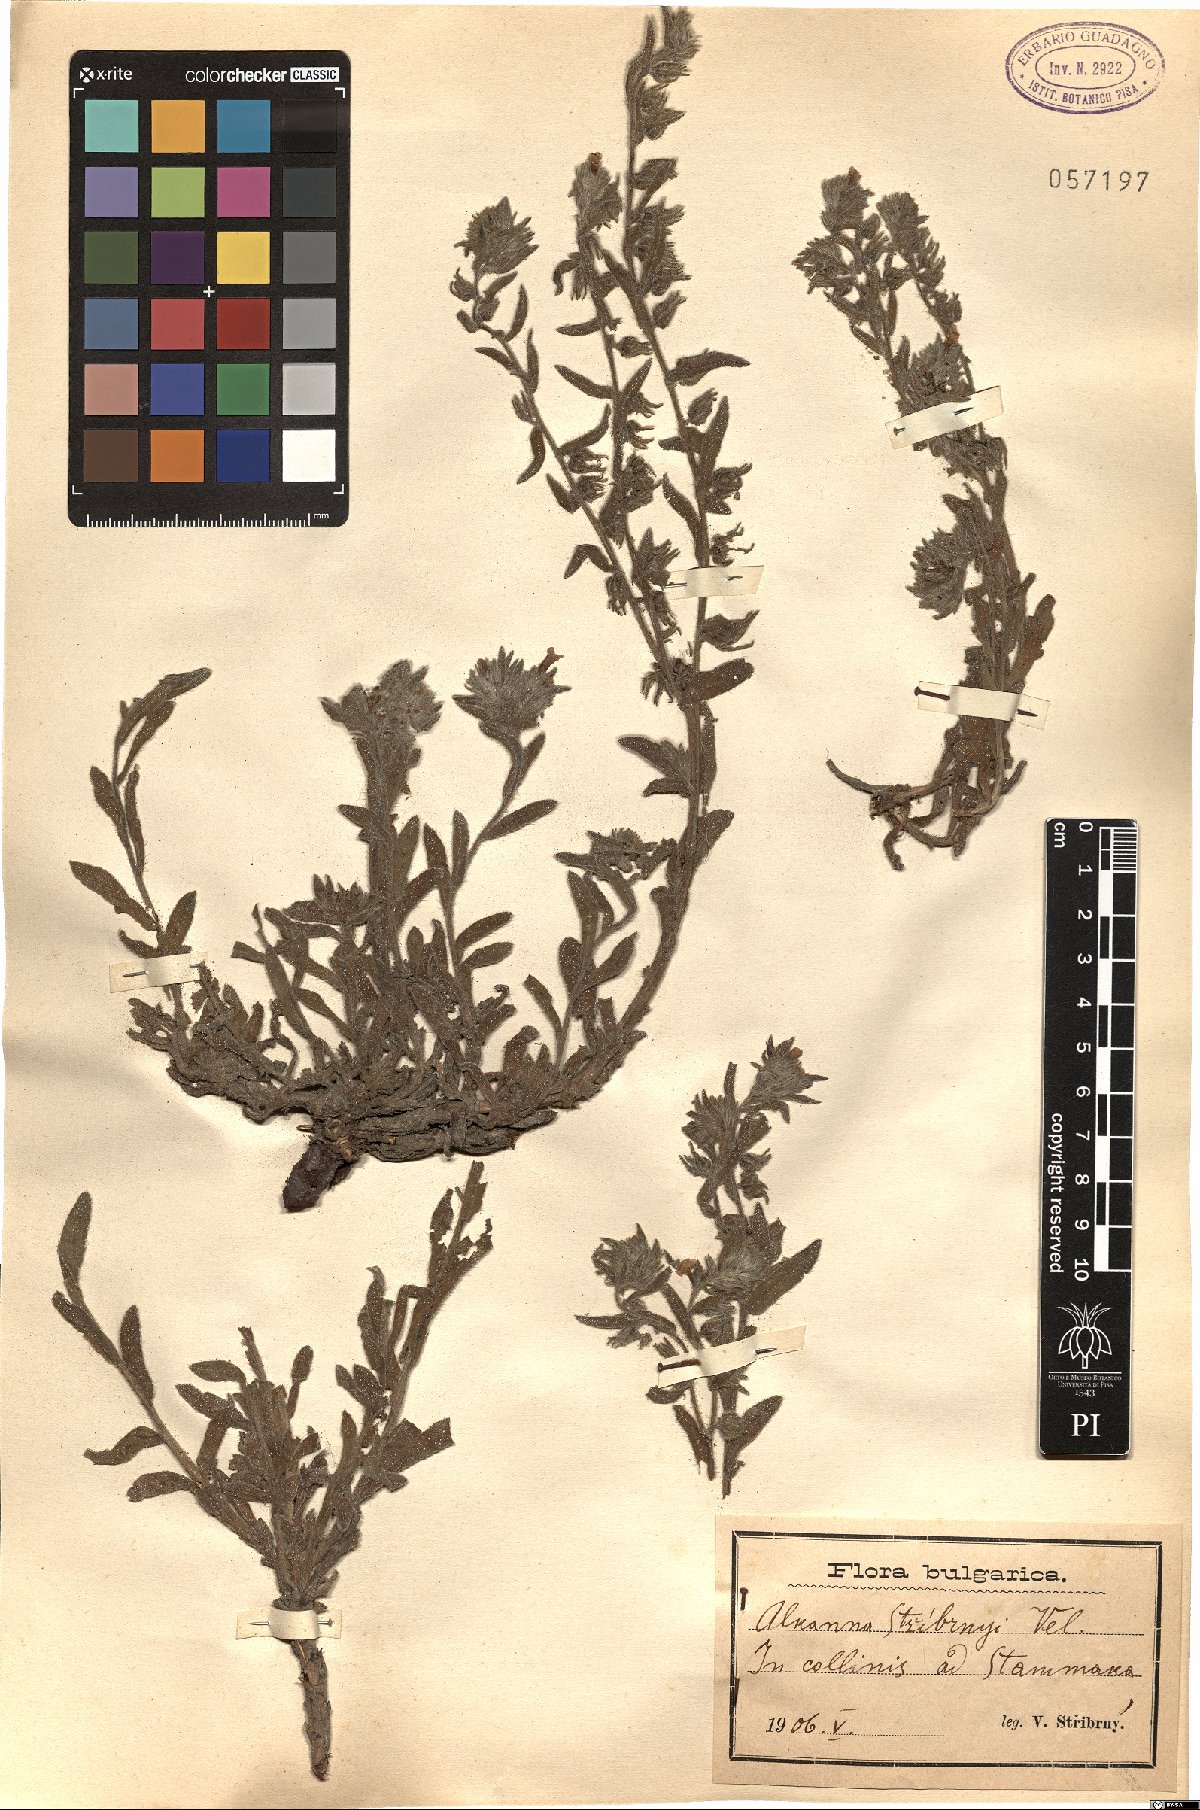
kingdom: Plantae
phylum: Tracheophyta
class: Magnoliopsida
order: Boraginales
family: Boraginaceae
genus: Alkanna
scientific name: Alkanna stribrnyi
